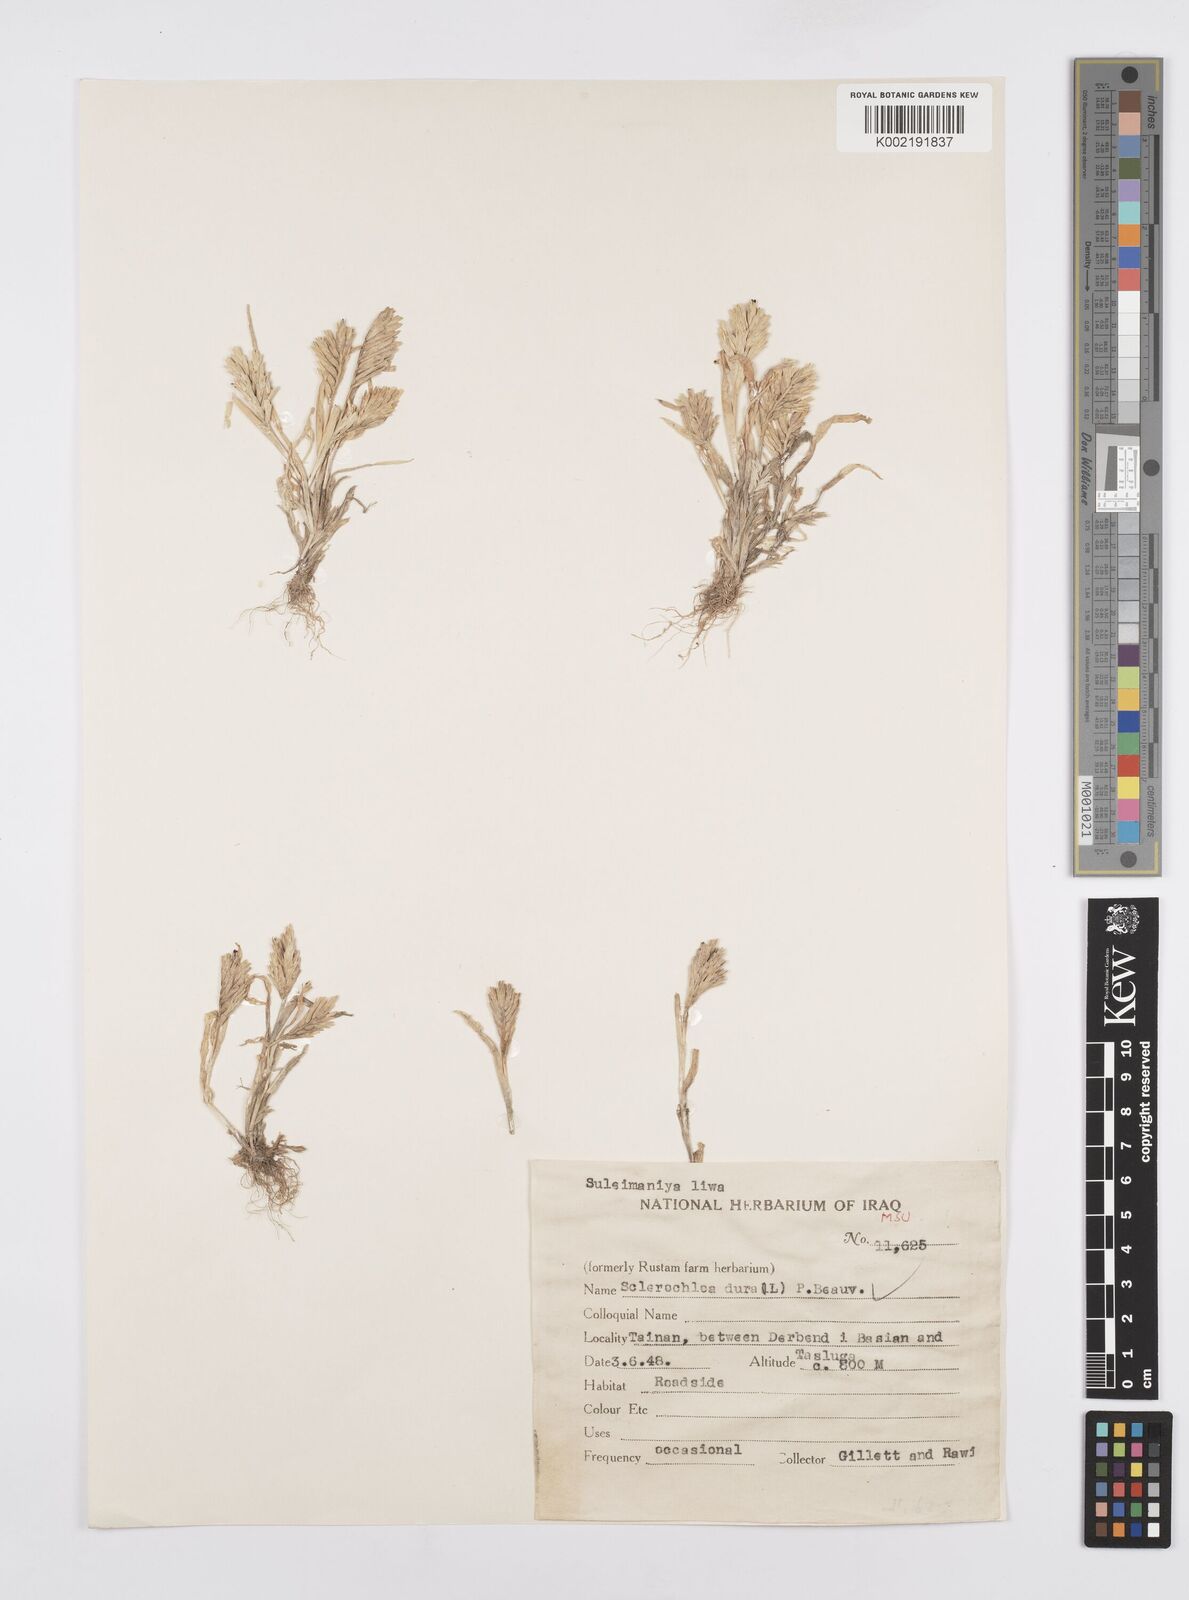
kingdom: Plantae
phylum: Tracheophyta
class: Liliopsida
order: Poales
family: Poaceae
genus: Sclerochloa
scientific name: Sclerochloa dura
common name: Common hardgrass
